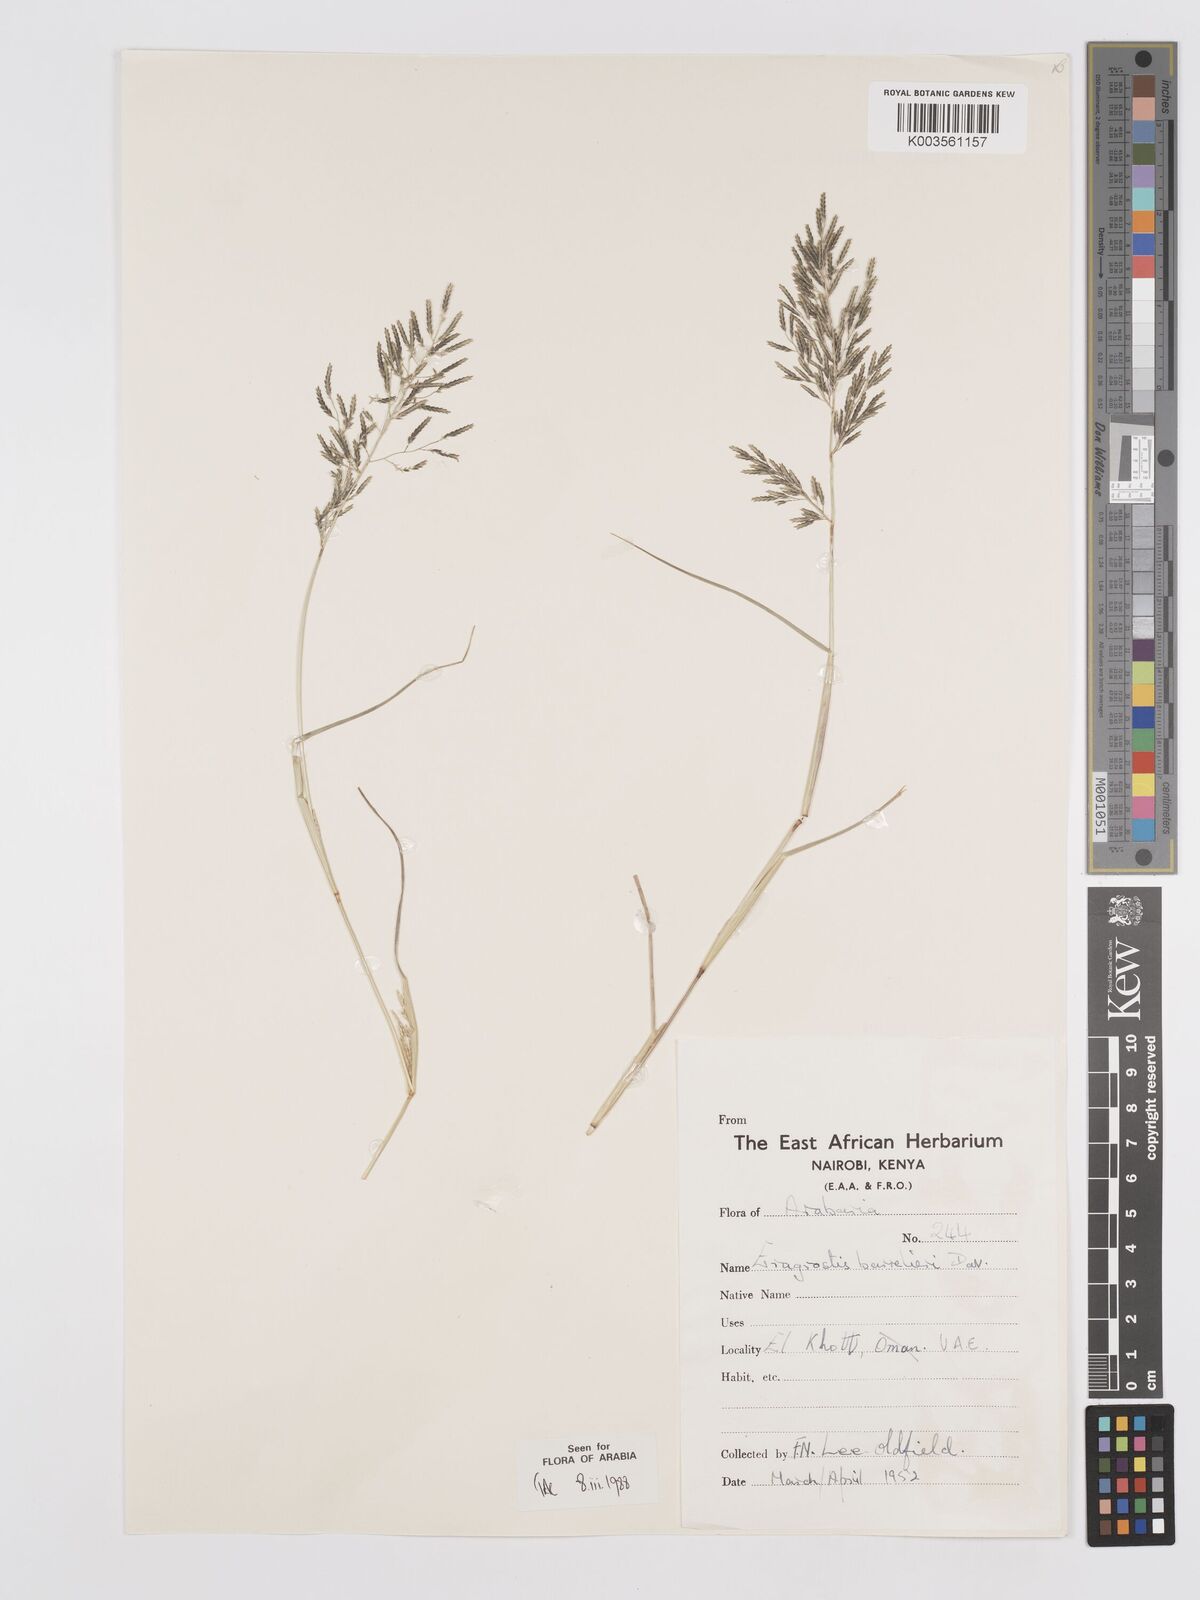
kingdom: Plantae
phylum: Tracheophyta
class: Liliopsida
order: Poales
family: Poaceae
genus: Eragrostis
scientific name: Eragrostis barrelieri
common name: Mediterranean lovegrass
